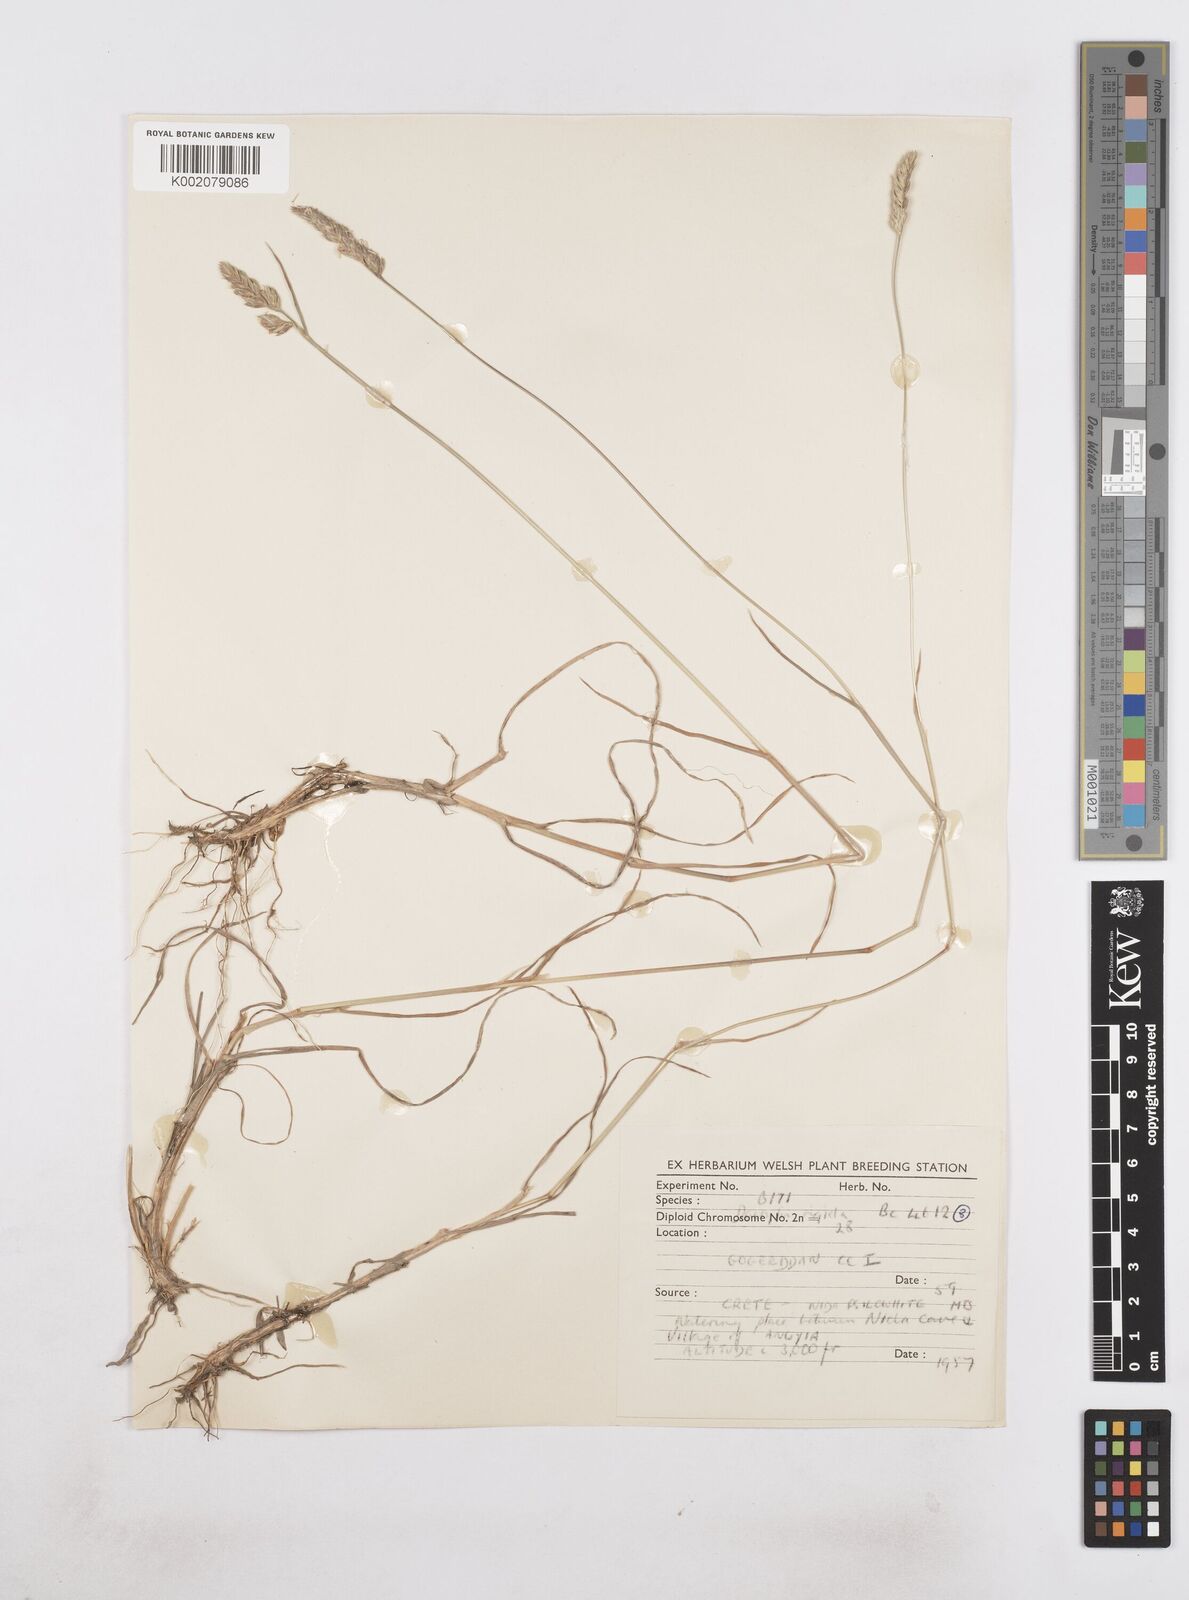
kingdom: Plantae
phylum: Tracheophyta
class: Liliopsida
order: Poales
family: Poaceae
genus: Dactylis
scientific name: Dactylis glomerata
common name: Orchardgrass
